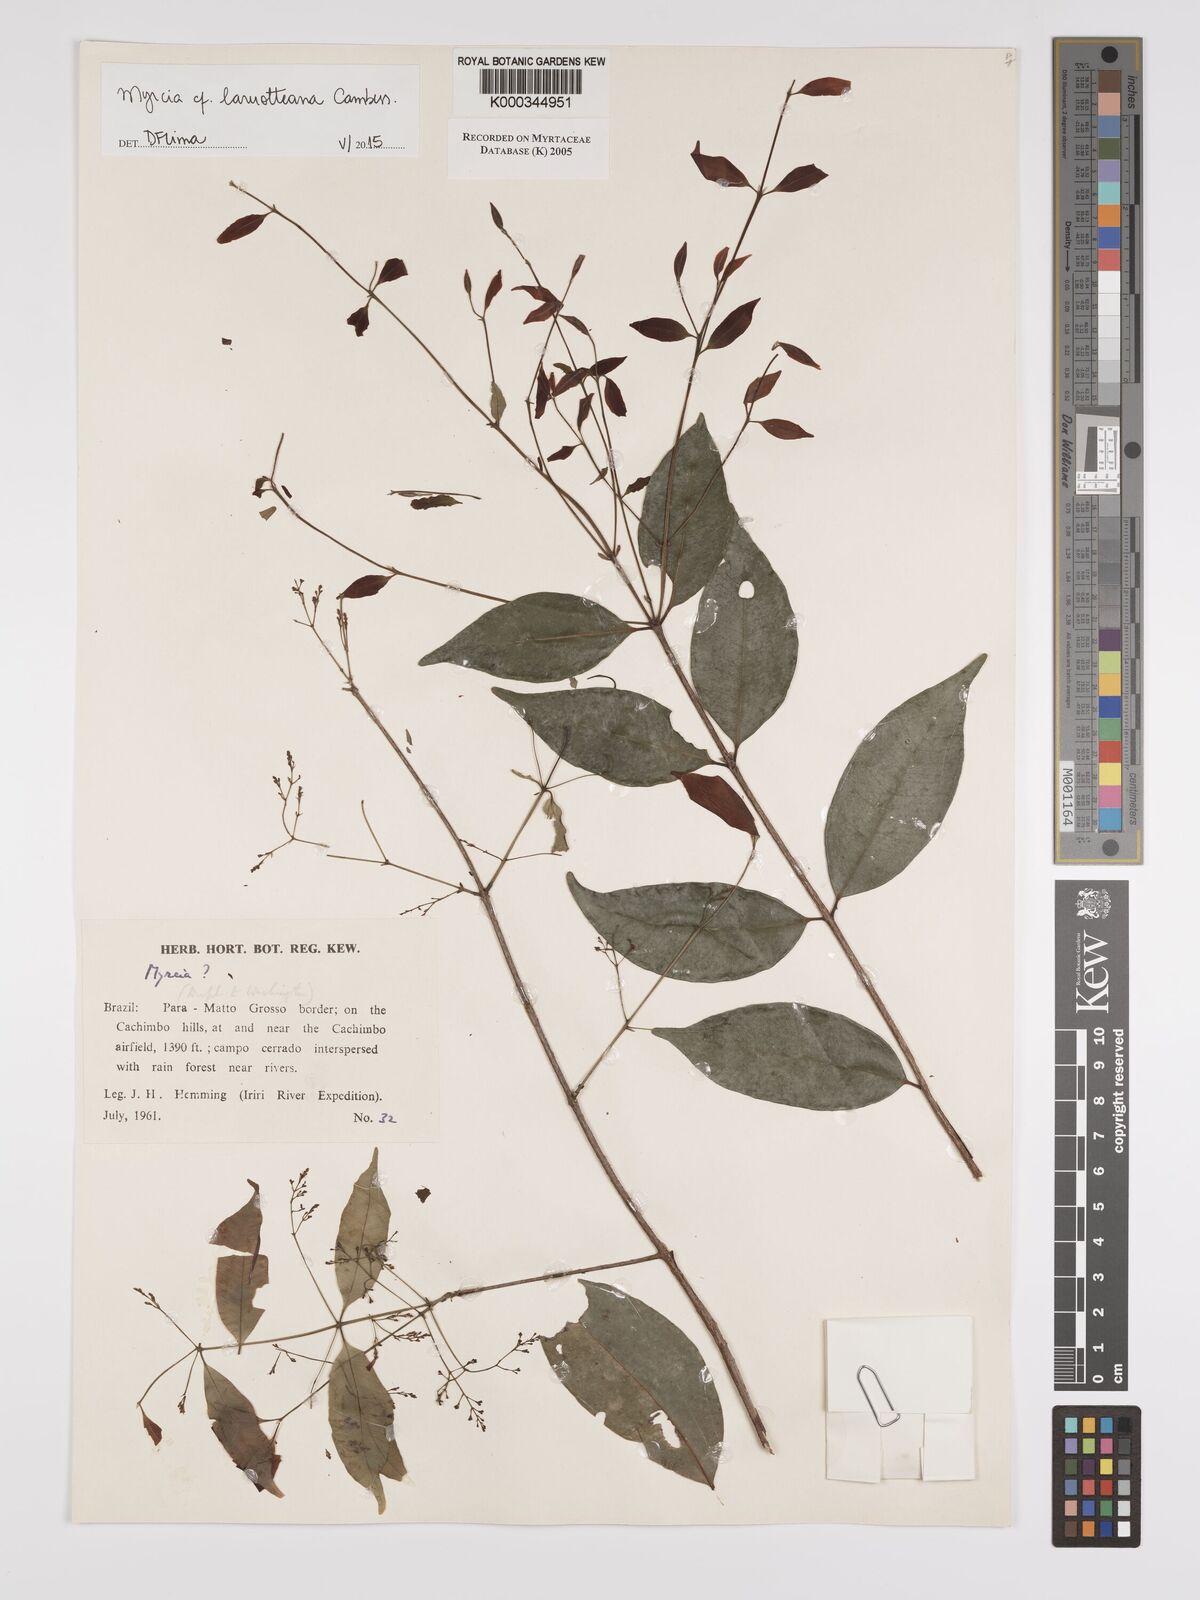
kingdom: Plantae
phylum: Tracheophyta
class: Magnoliopsida
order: Myrtales
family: Myrtaceae
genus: Myrcia
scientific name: Myrcia
